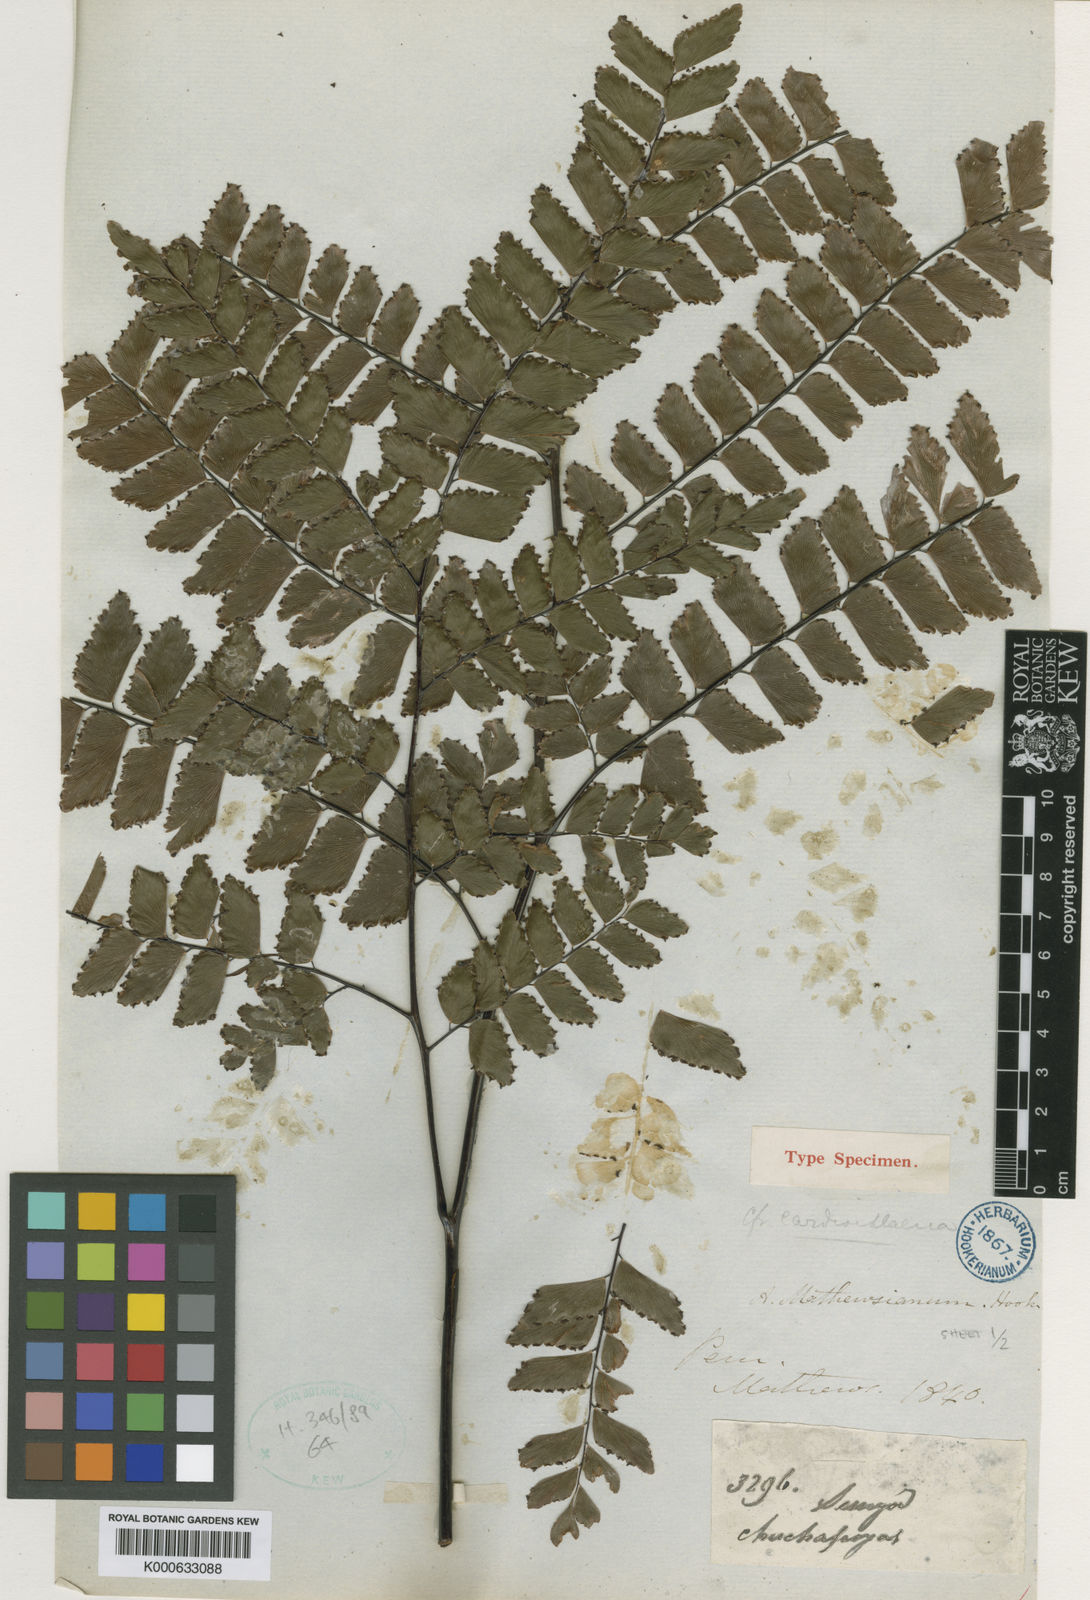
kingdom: Plantae
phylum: Tracheophyta
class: Polypodiopsida
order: Polypodiales
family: Pteridaceae
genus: Adiantum
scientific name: Adiantum mathewsianum
